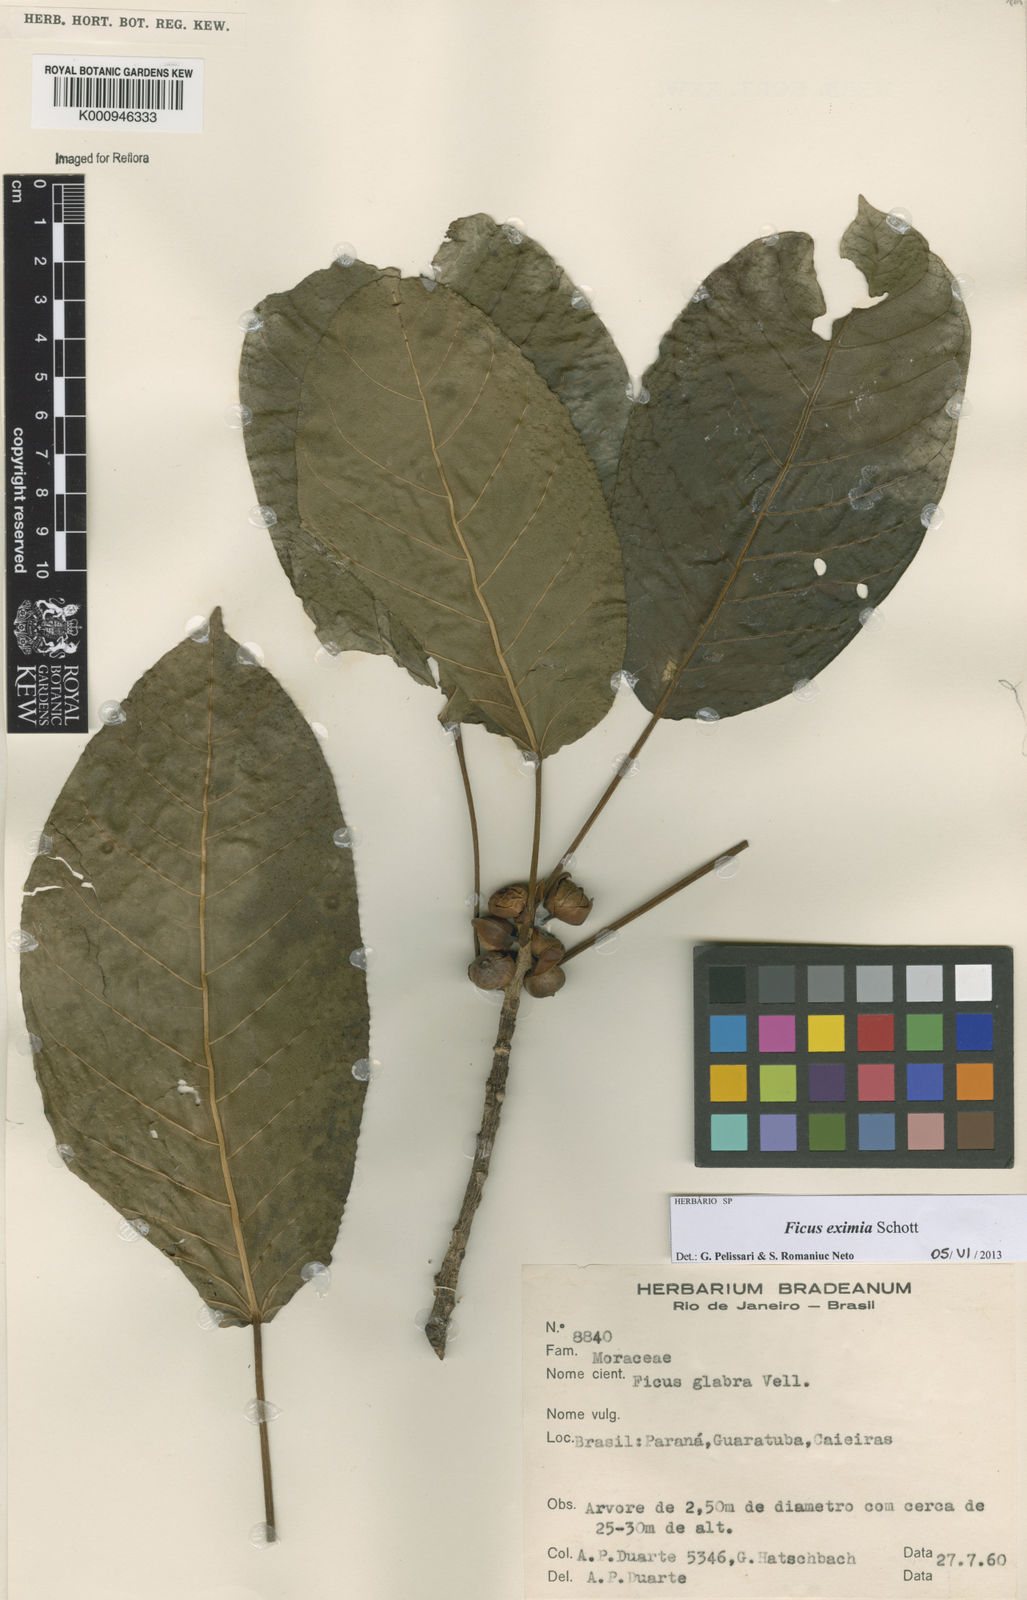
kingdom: Plantae
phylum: Tracheophyta
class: Magnoliopsida
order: Rosales
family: Moraceae
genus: Ficus
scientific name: Ficus eximia
